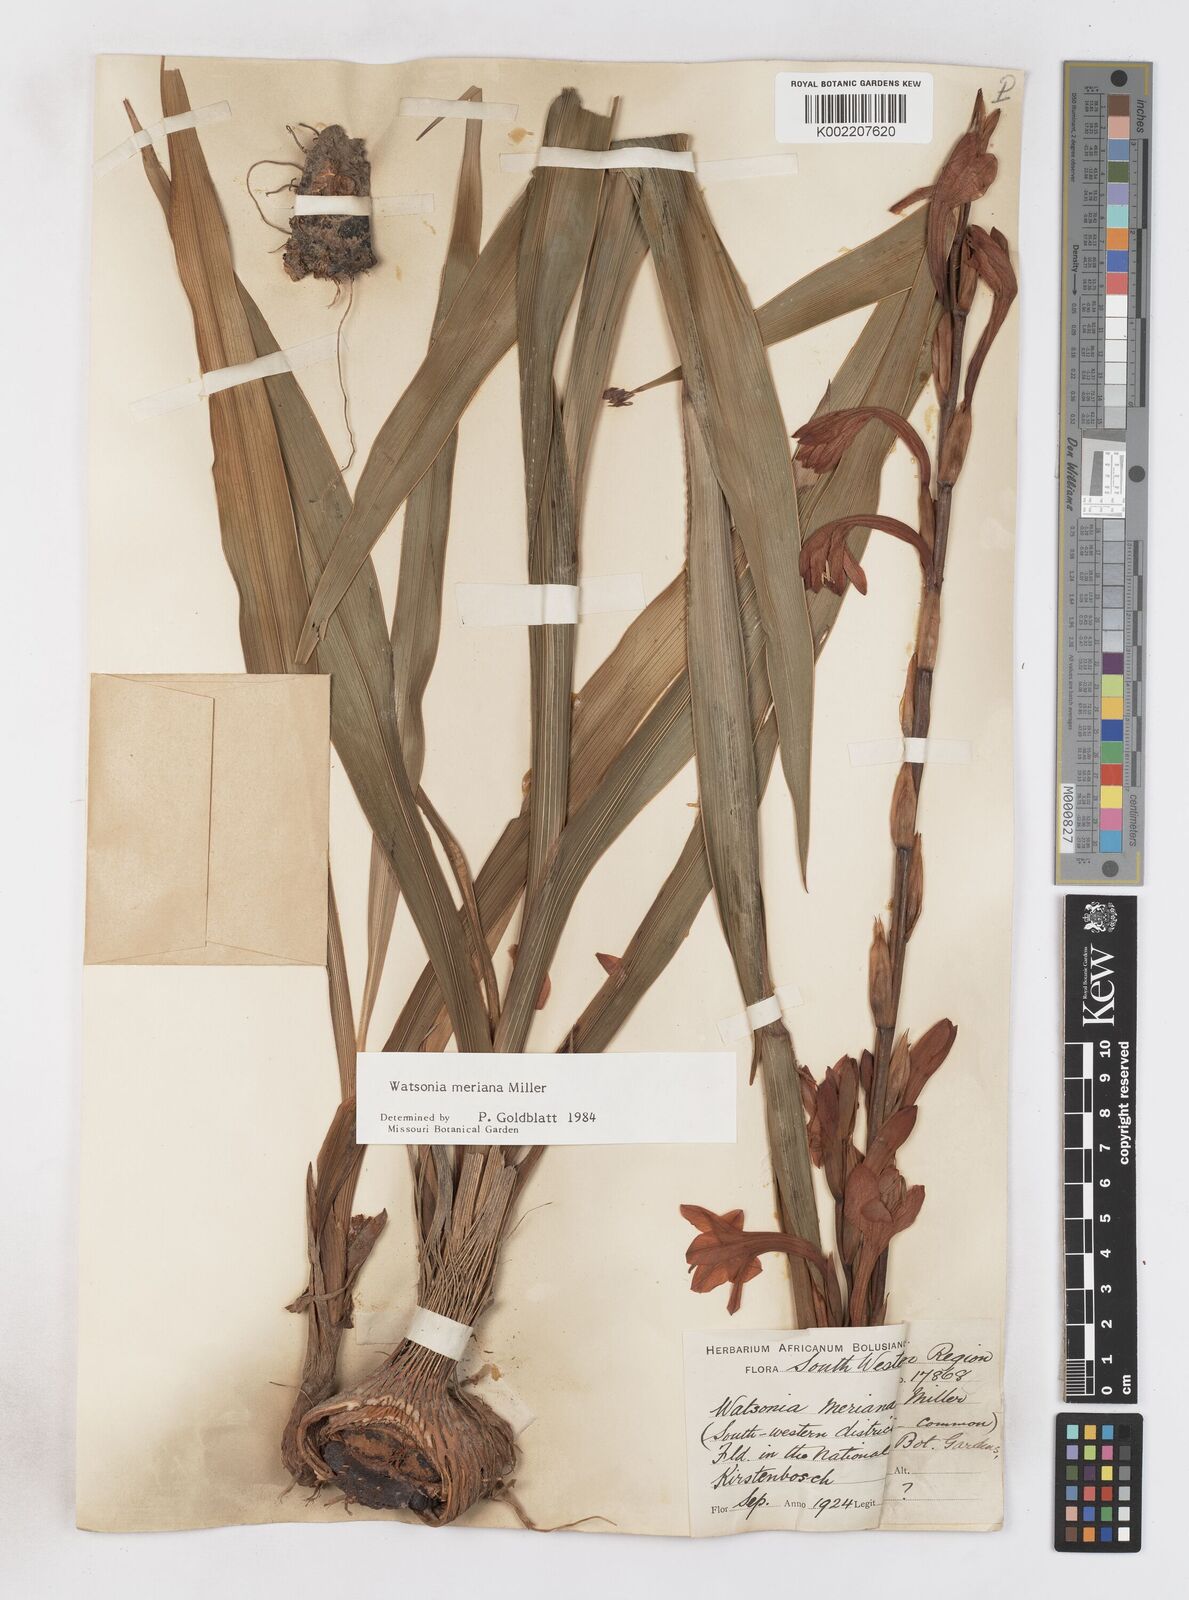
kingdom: Plantae
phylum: Tracheophyta
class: Liliopsida
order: Asparagales
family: Iridaceae
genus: Watsonia
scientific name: Watsonia meriana
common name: Bulbil bugle-lily
